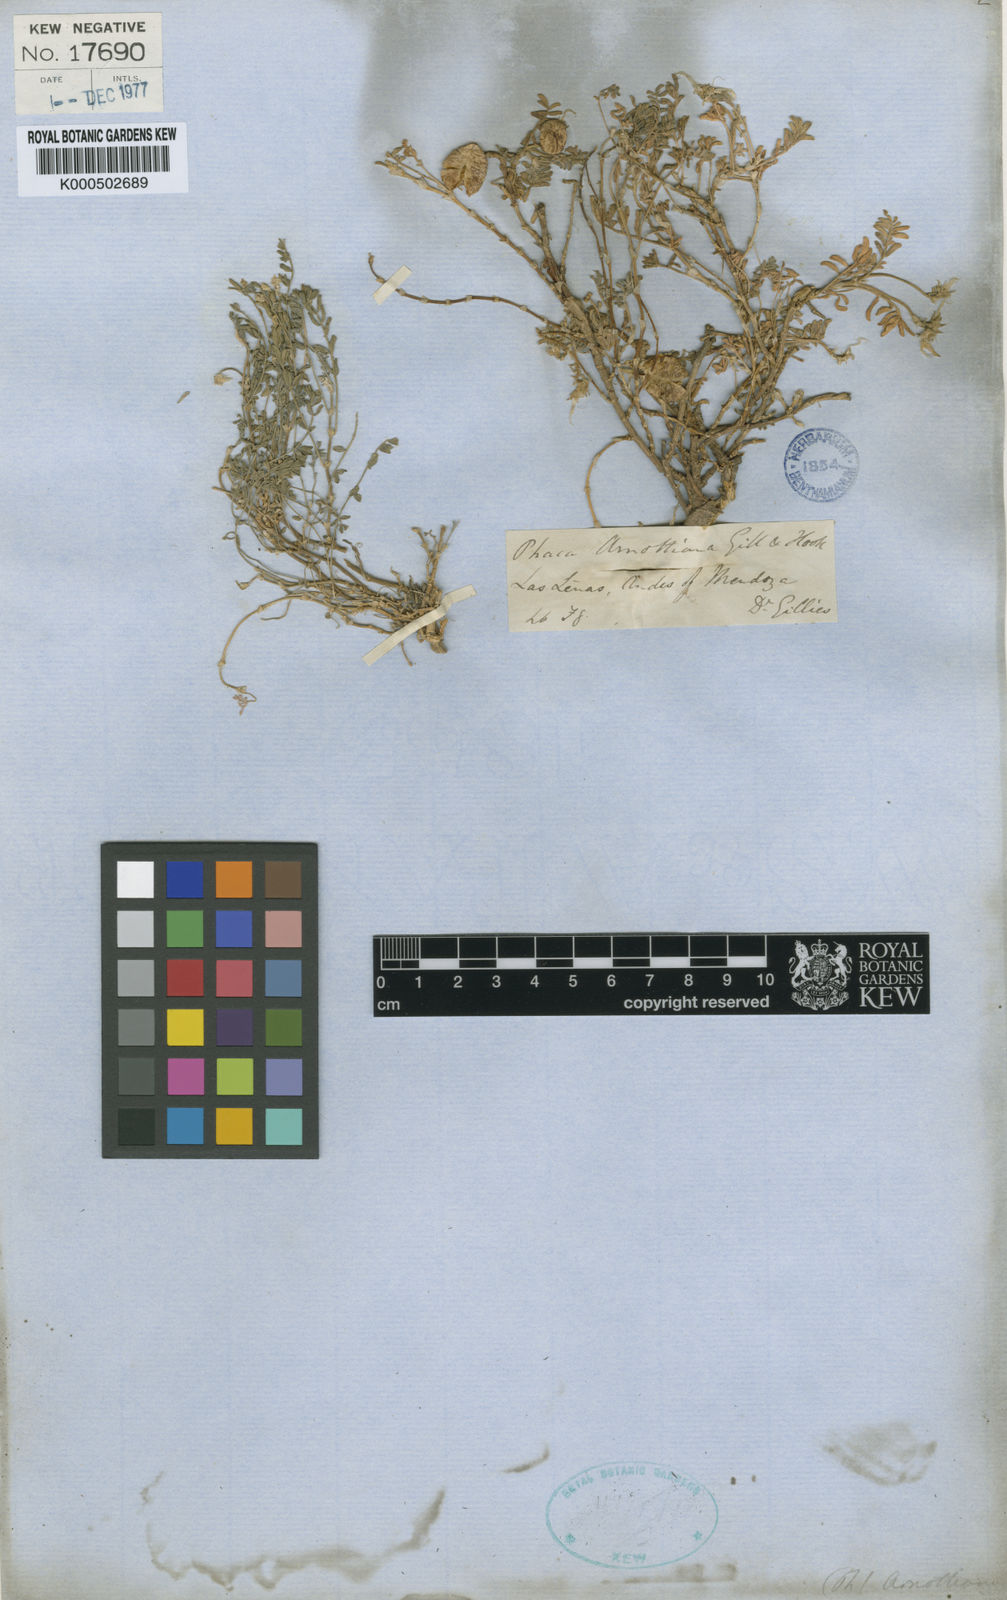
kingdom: Plantae
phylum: Tracheophyta
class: Magnoliopsida
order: Fabales
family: Fabaceae
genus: Astragalus
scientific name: Astragalus
